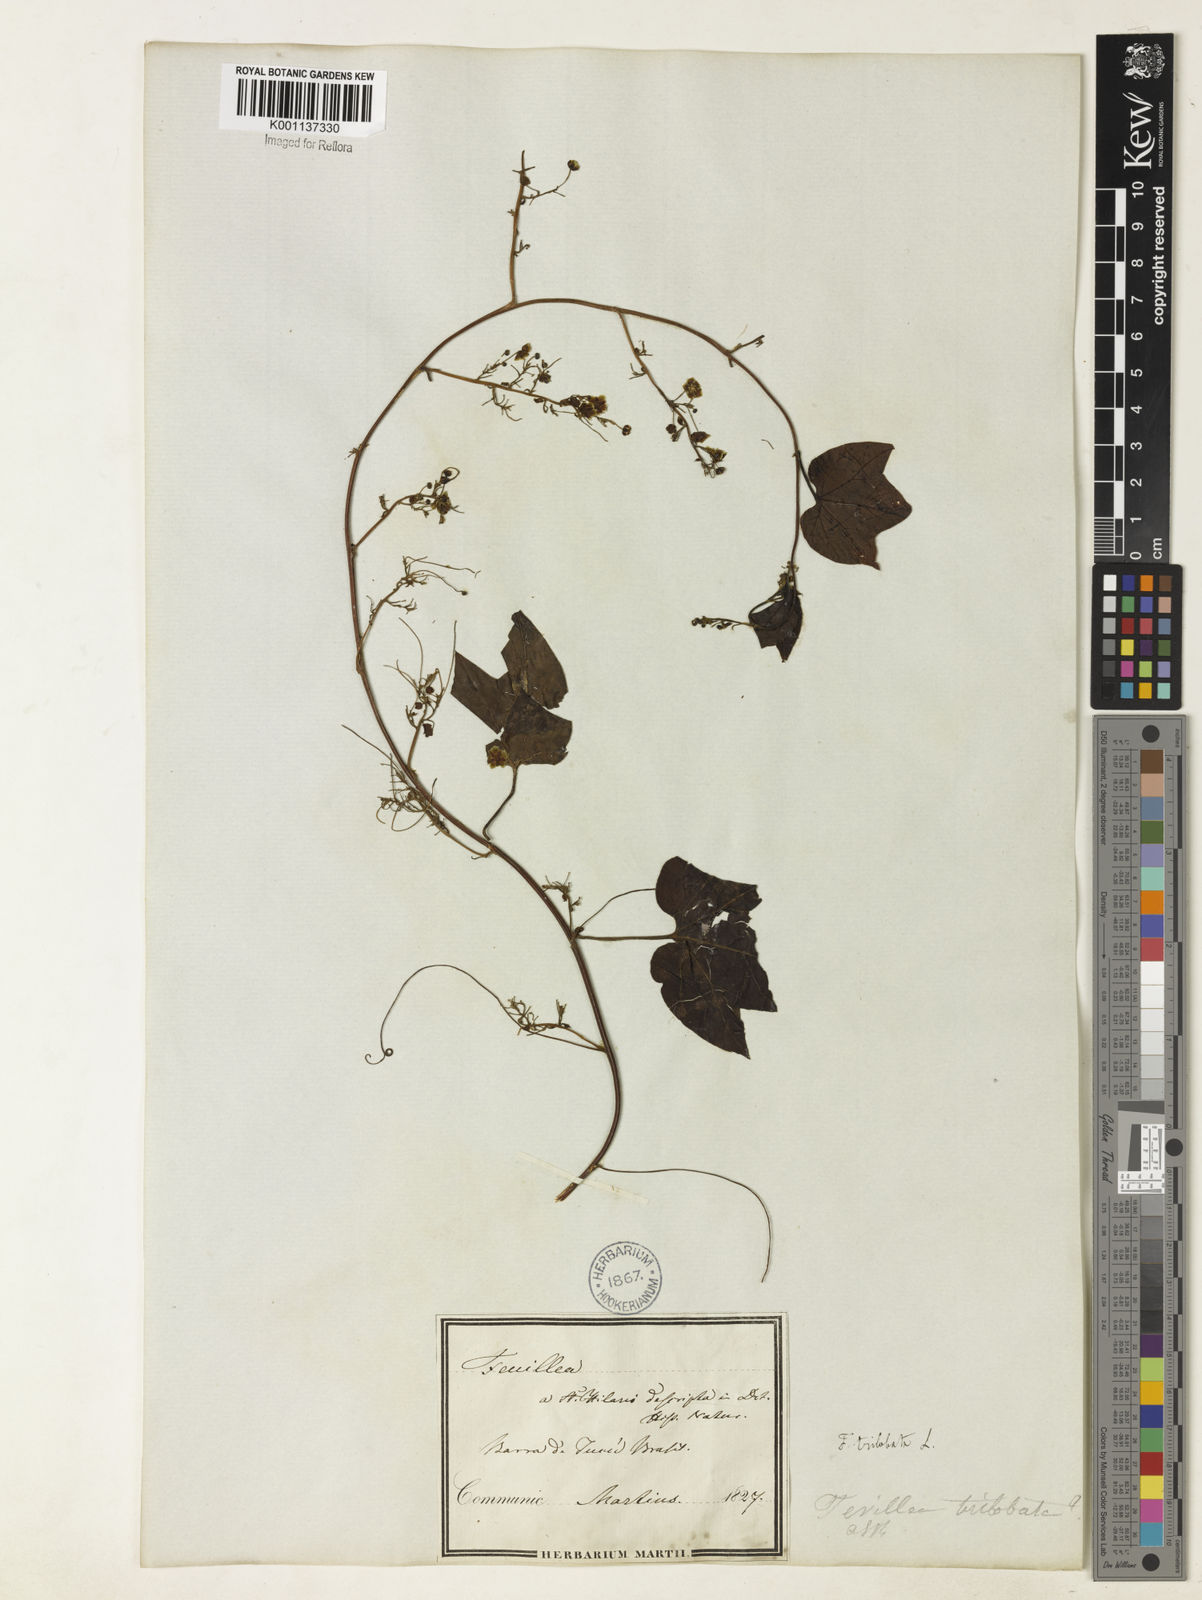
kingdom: Plantae
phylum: Tracheophyta
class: Magnoliopsida
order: Cucurbitales
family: Cucurbitaceae
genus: Fevillea
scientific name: Fevillea trilobata
